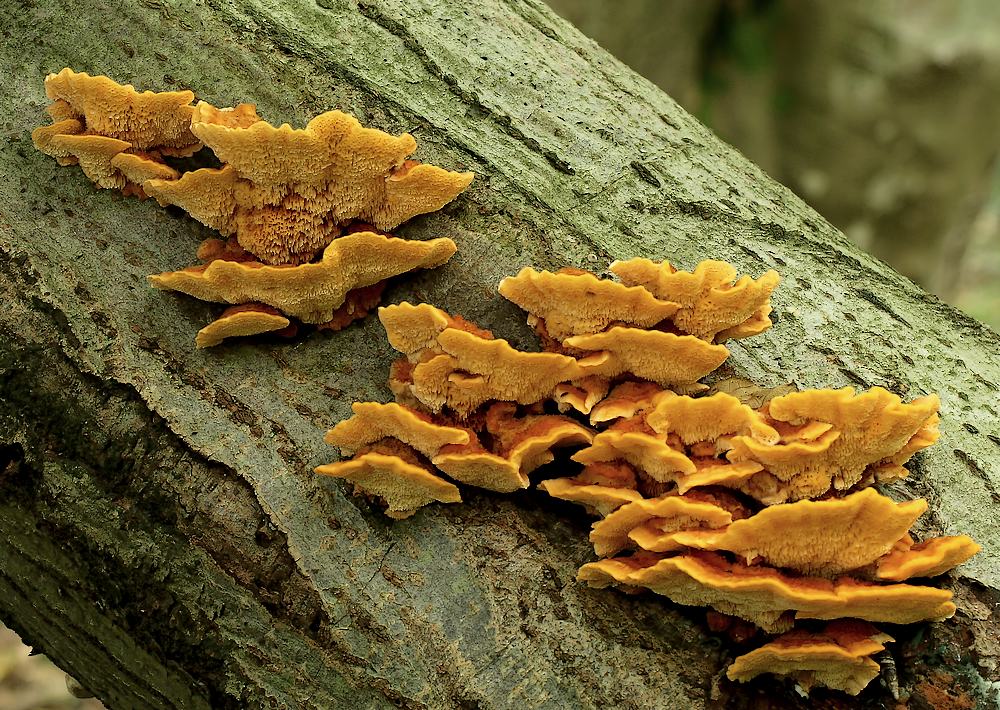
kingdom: Fungi
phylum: Basidiomycota
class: Agaricomycetes
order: Polyporales
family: Pycnoporellaceae
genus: Pycnoporellus
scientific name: Pycnoporellus fulgens
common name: flammeporesvamp
